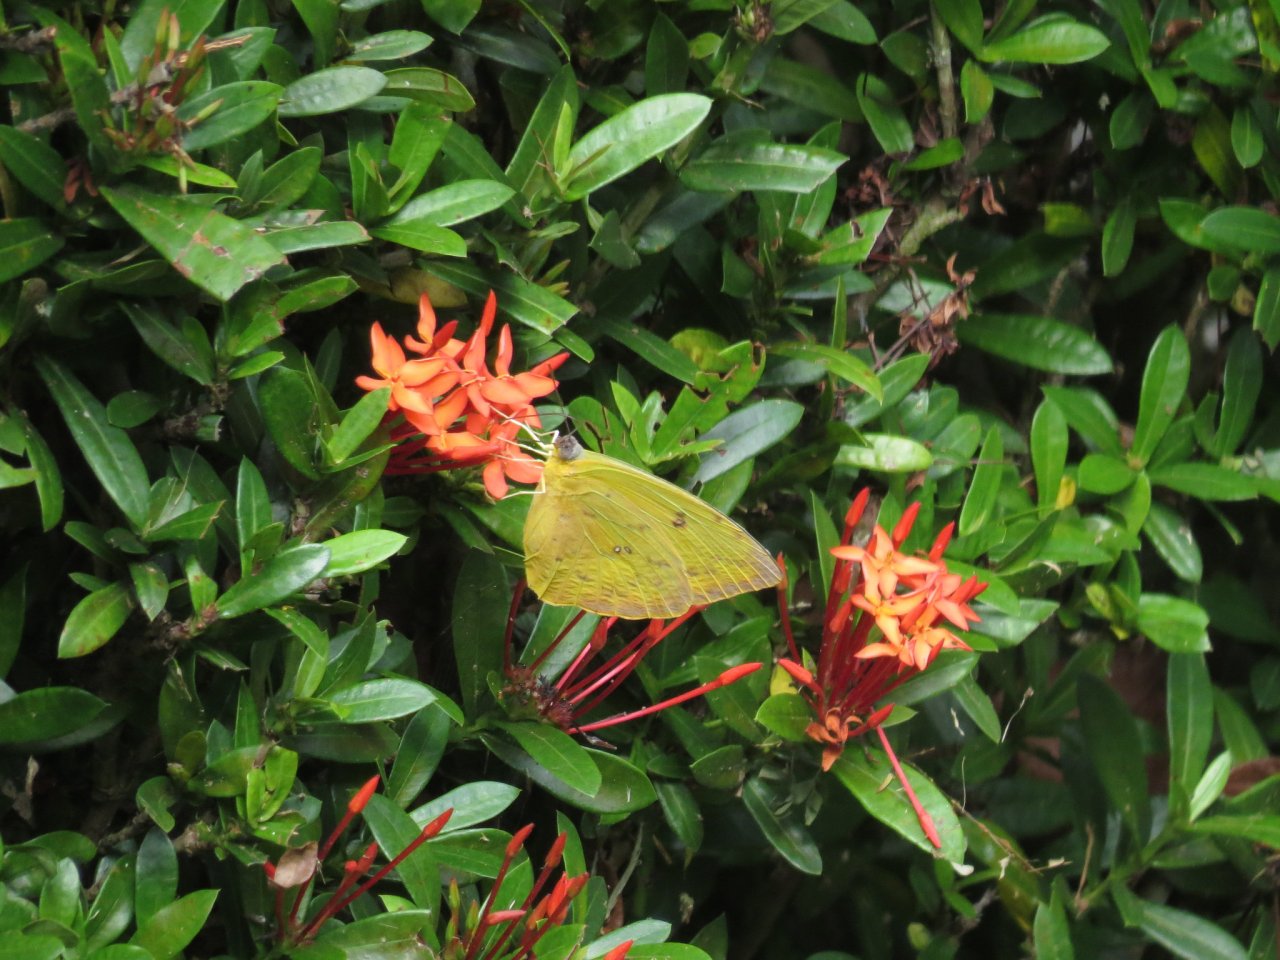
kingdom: Animalia
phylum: Arthropoda
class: Insecta
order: Lepidoptera
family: Pieridae
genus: Phoebis
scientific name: Phoebis philea
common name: Orange-barred Sulphur
